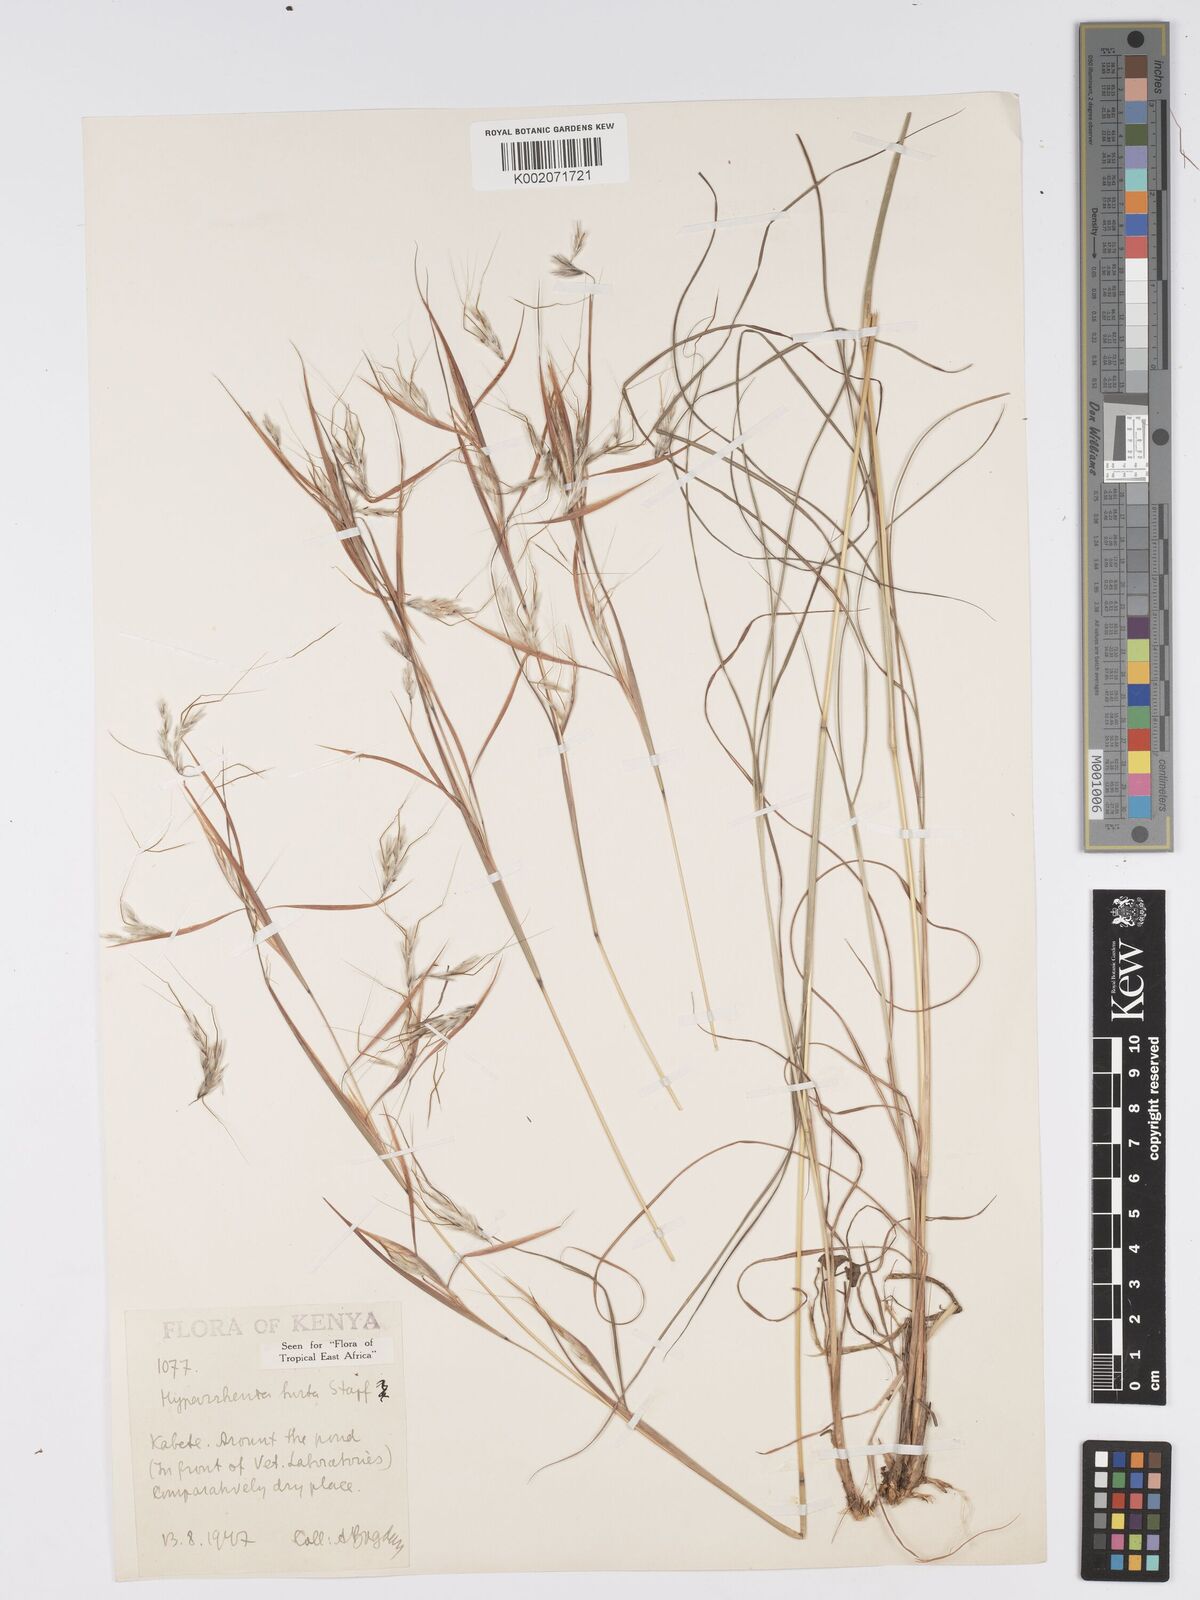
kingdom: Plantae
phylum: Tracheophyta
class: Liliopsida
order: Poales
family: Poaceae
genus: Hyparrhenia
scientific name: Hyparrhenia hirta
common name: Thatching grass
